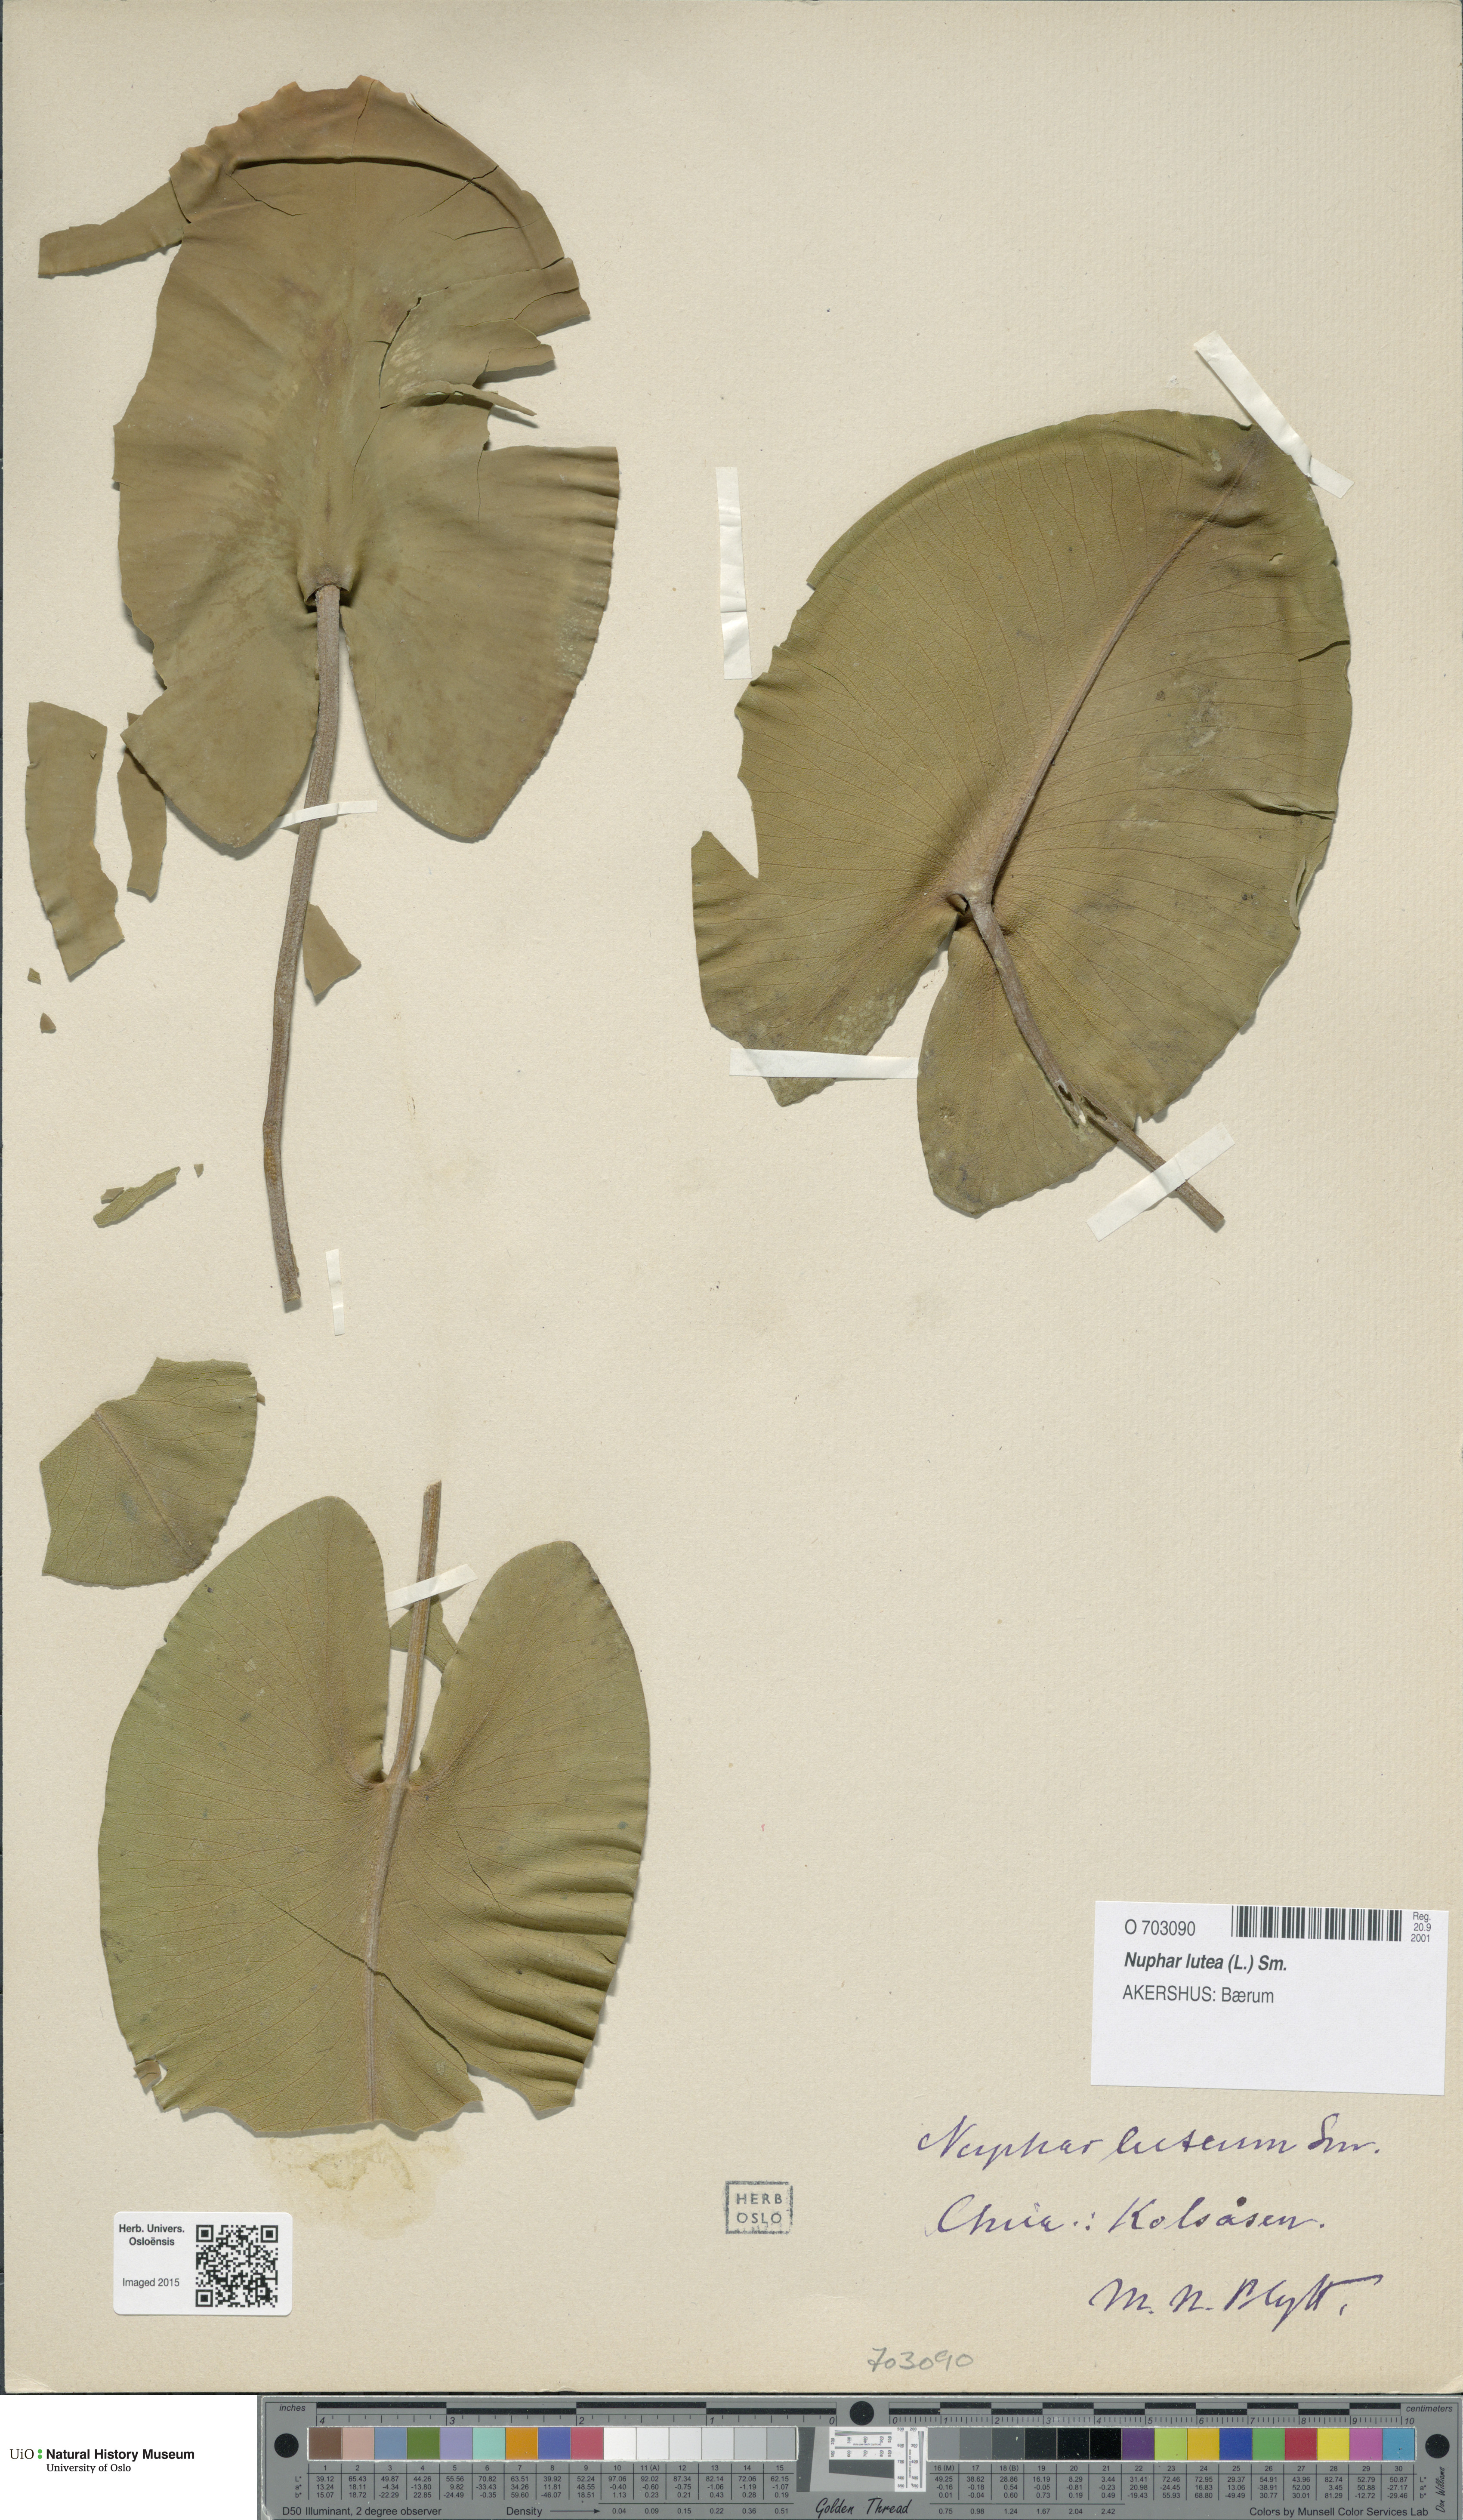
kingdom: Plantae
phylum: Tracheophyta
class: Magnoliopsida
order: Nymphaeales
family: Nymphaeaceae
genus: Nuphar
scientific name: Nuphar lutea
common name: Yellow water-lily
